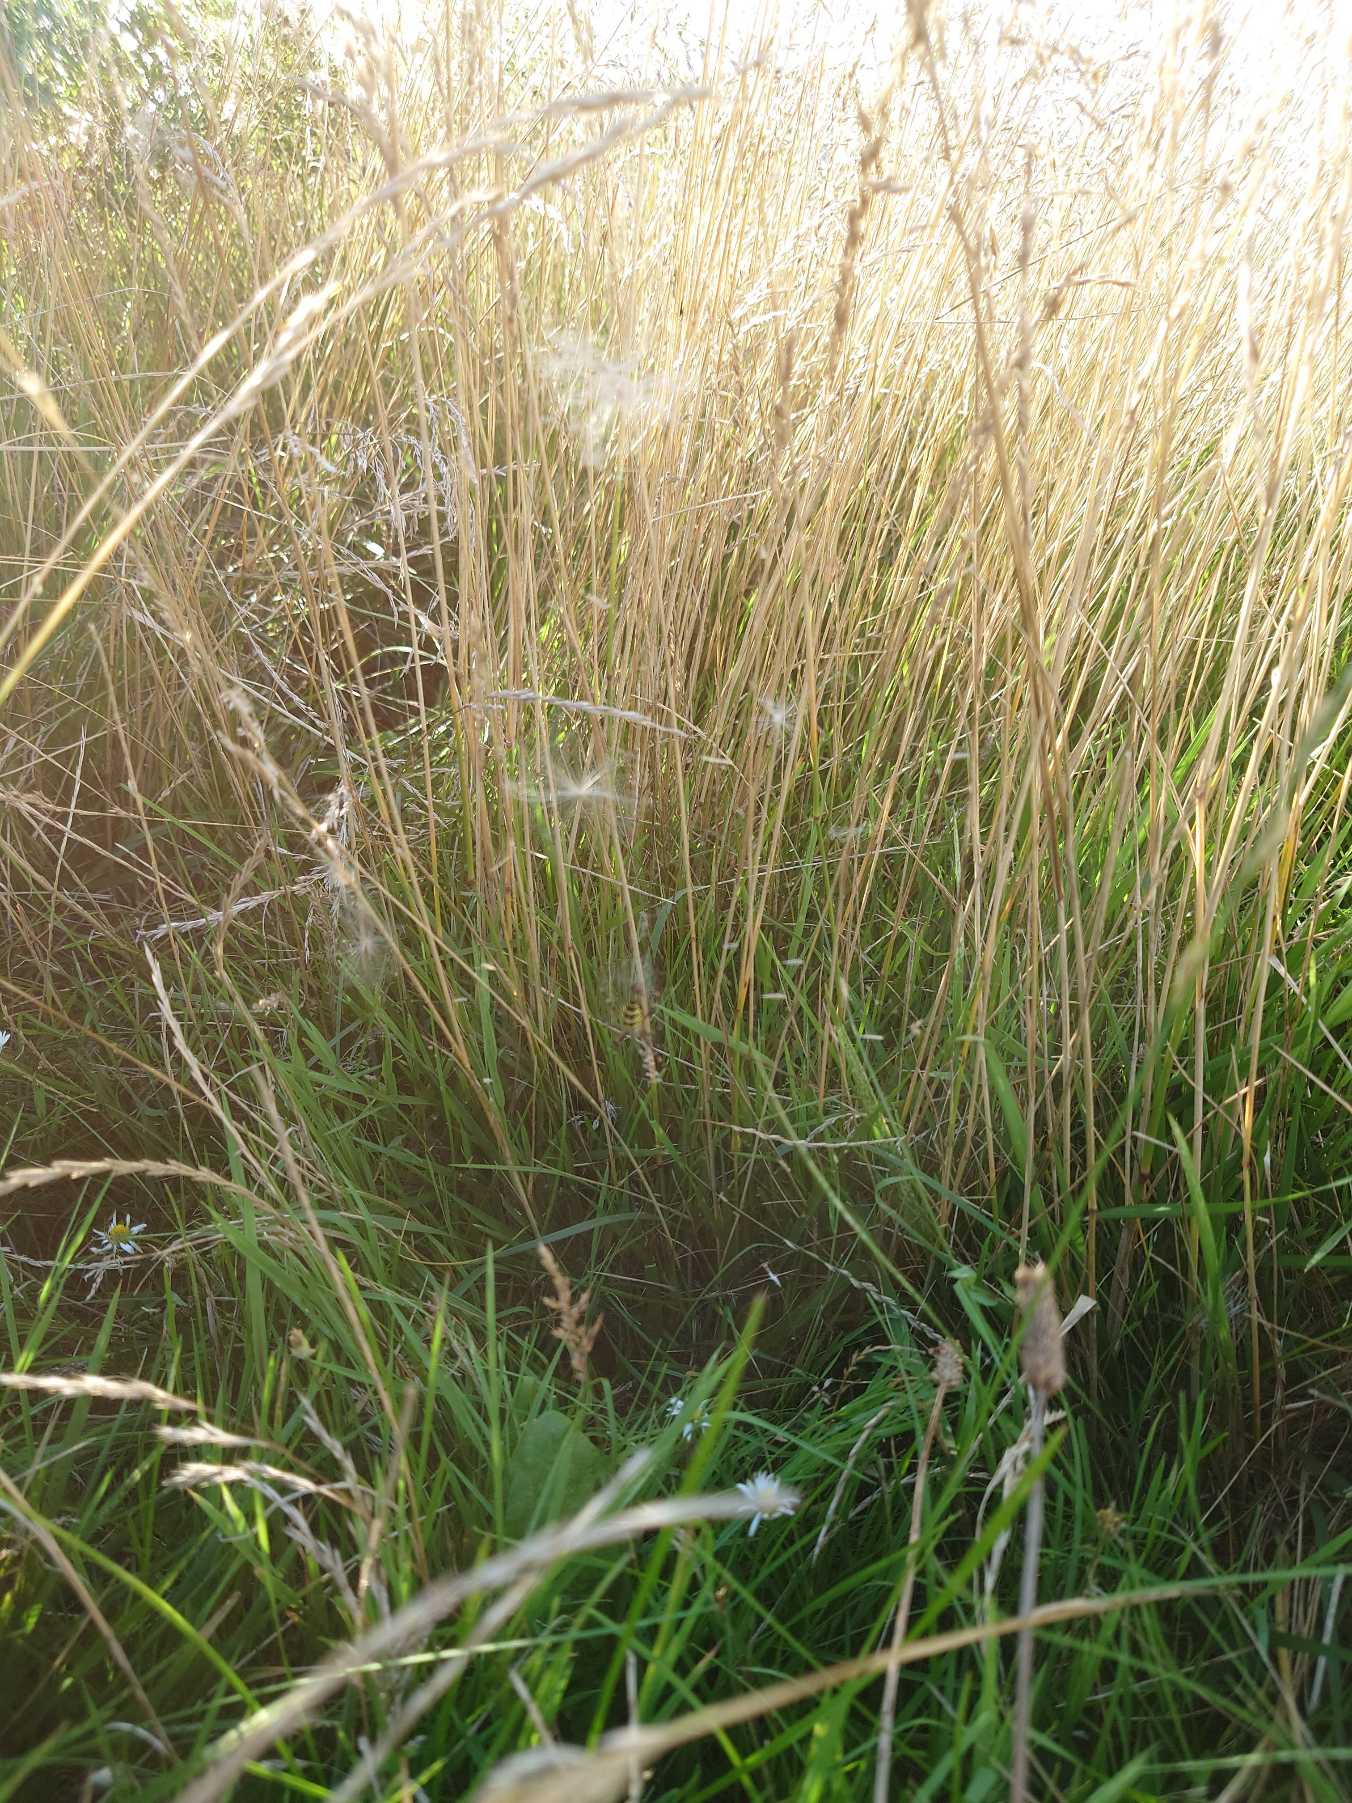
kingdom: Animalia
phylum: Arthropoda
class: Arachnida
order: Araneae
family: Araneidae
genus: Argiope
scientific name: Argiope bruennichi
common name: Hvepseedderkop
